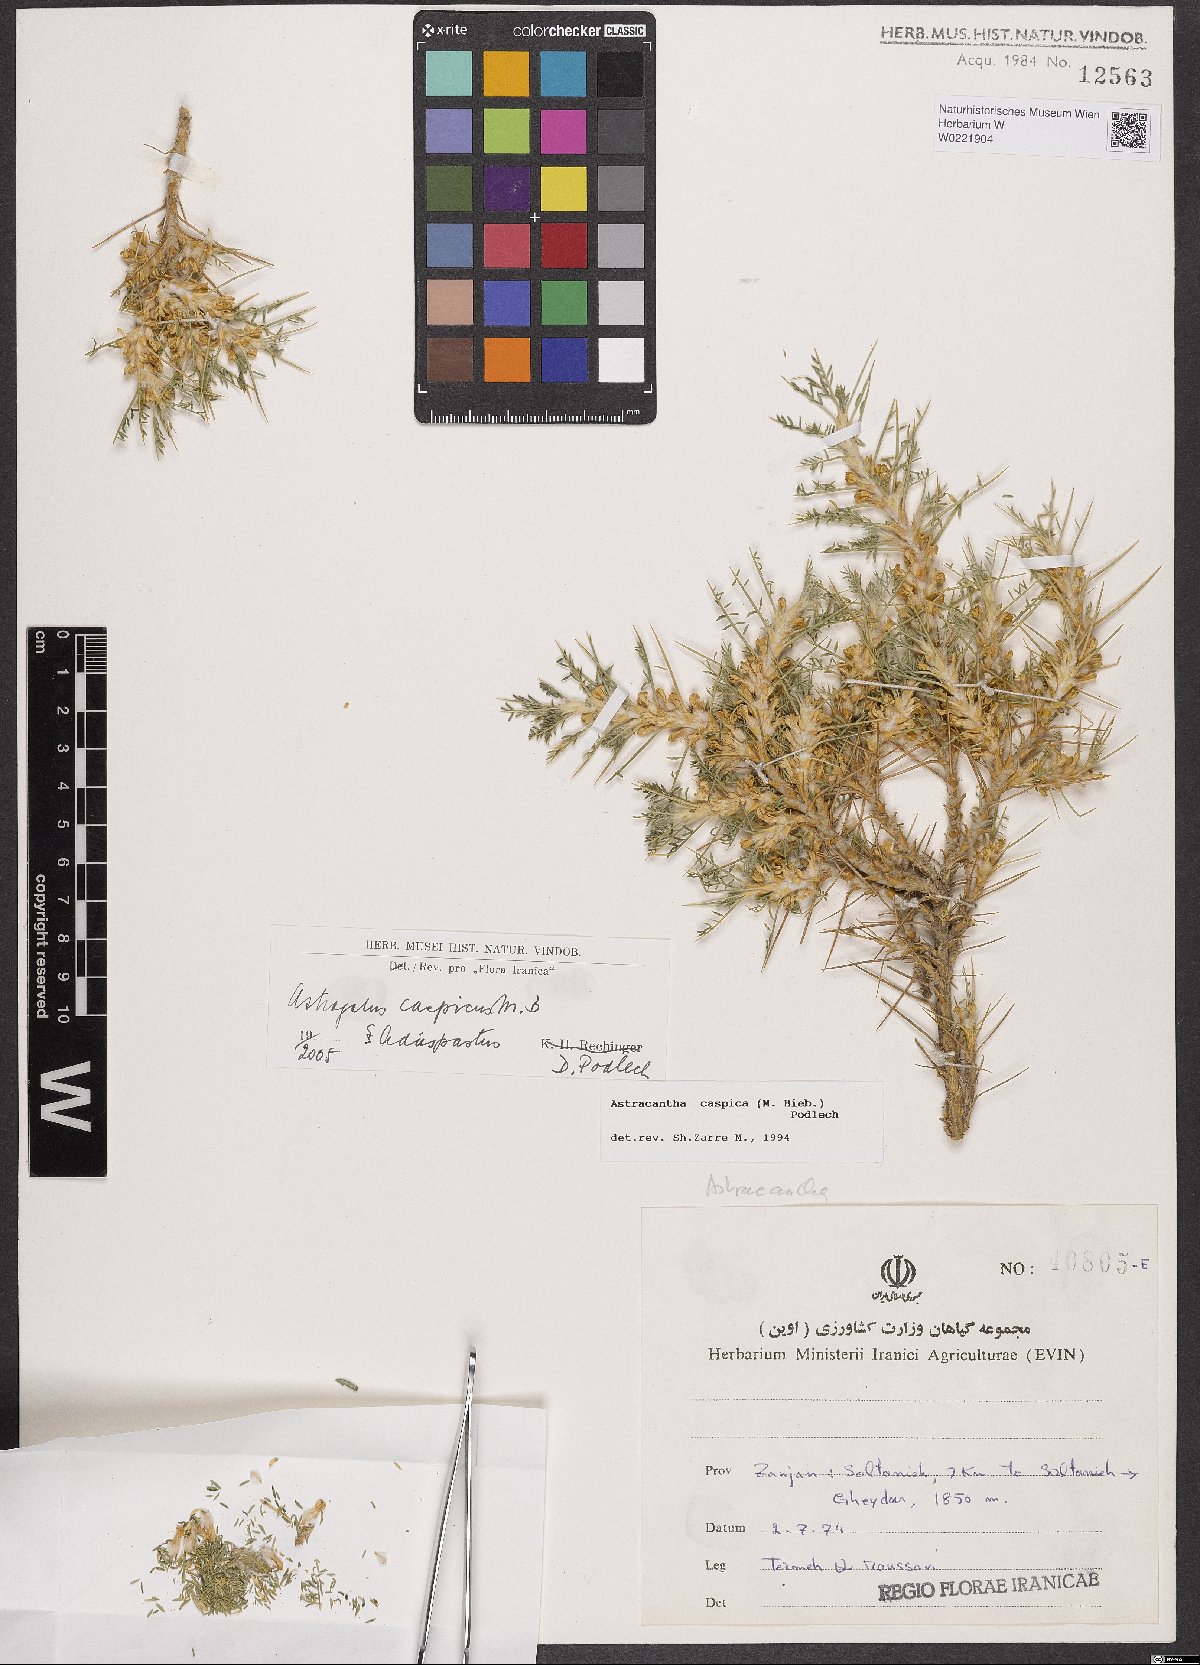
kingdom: Plantae
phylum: Tracheophyta
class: Magnoliopsida
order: Fabales
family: Fabaceae
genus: Astragalus
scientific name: Astragalus caspicus
